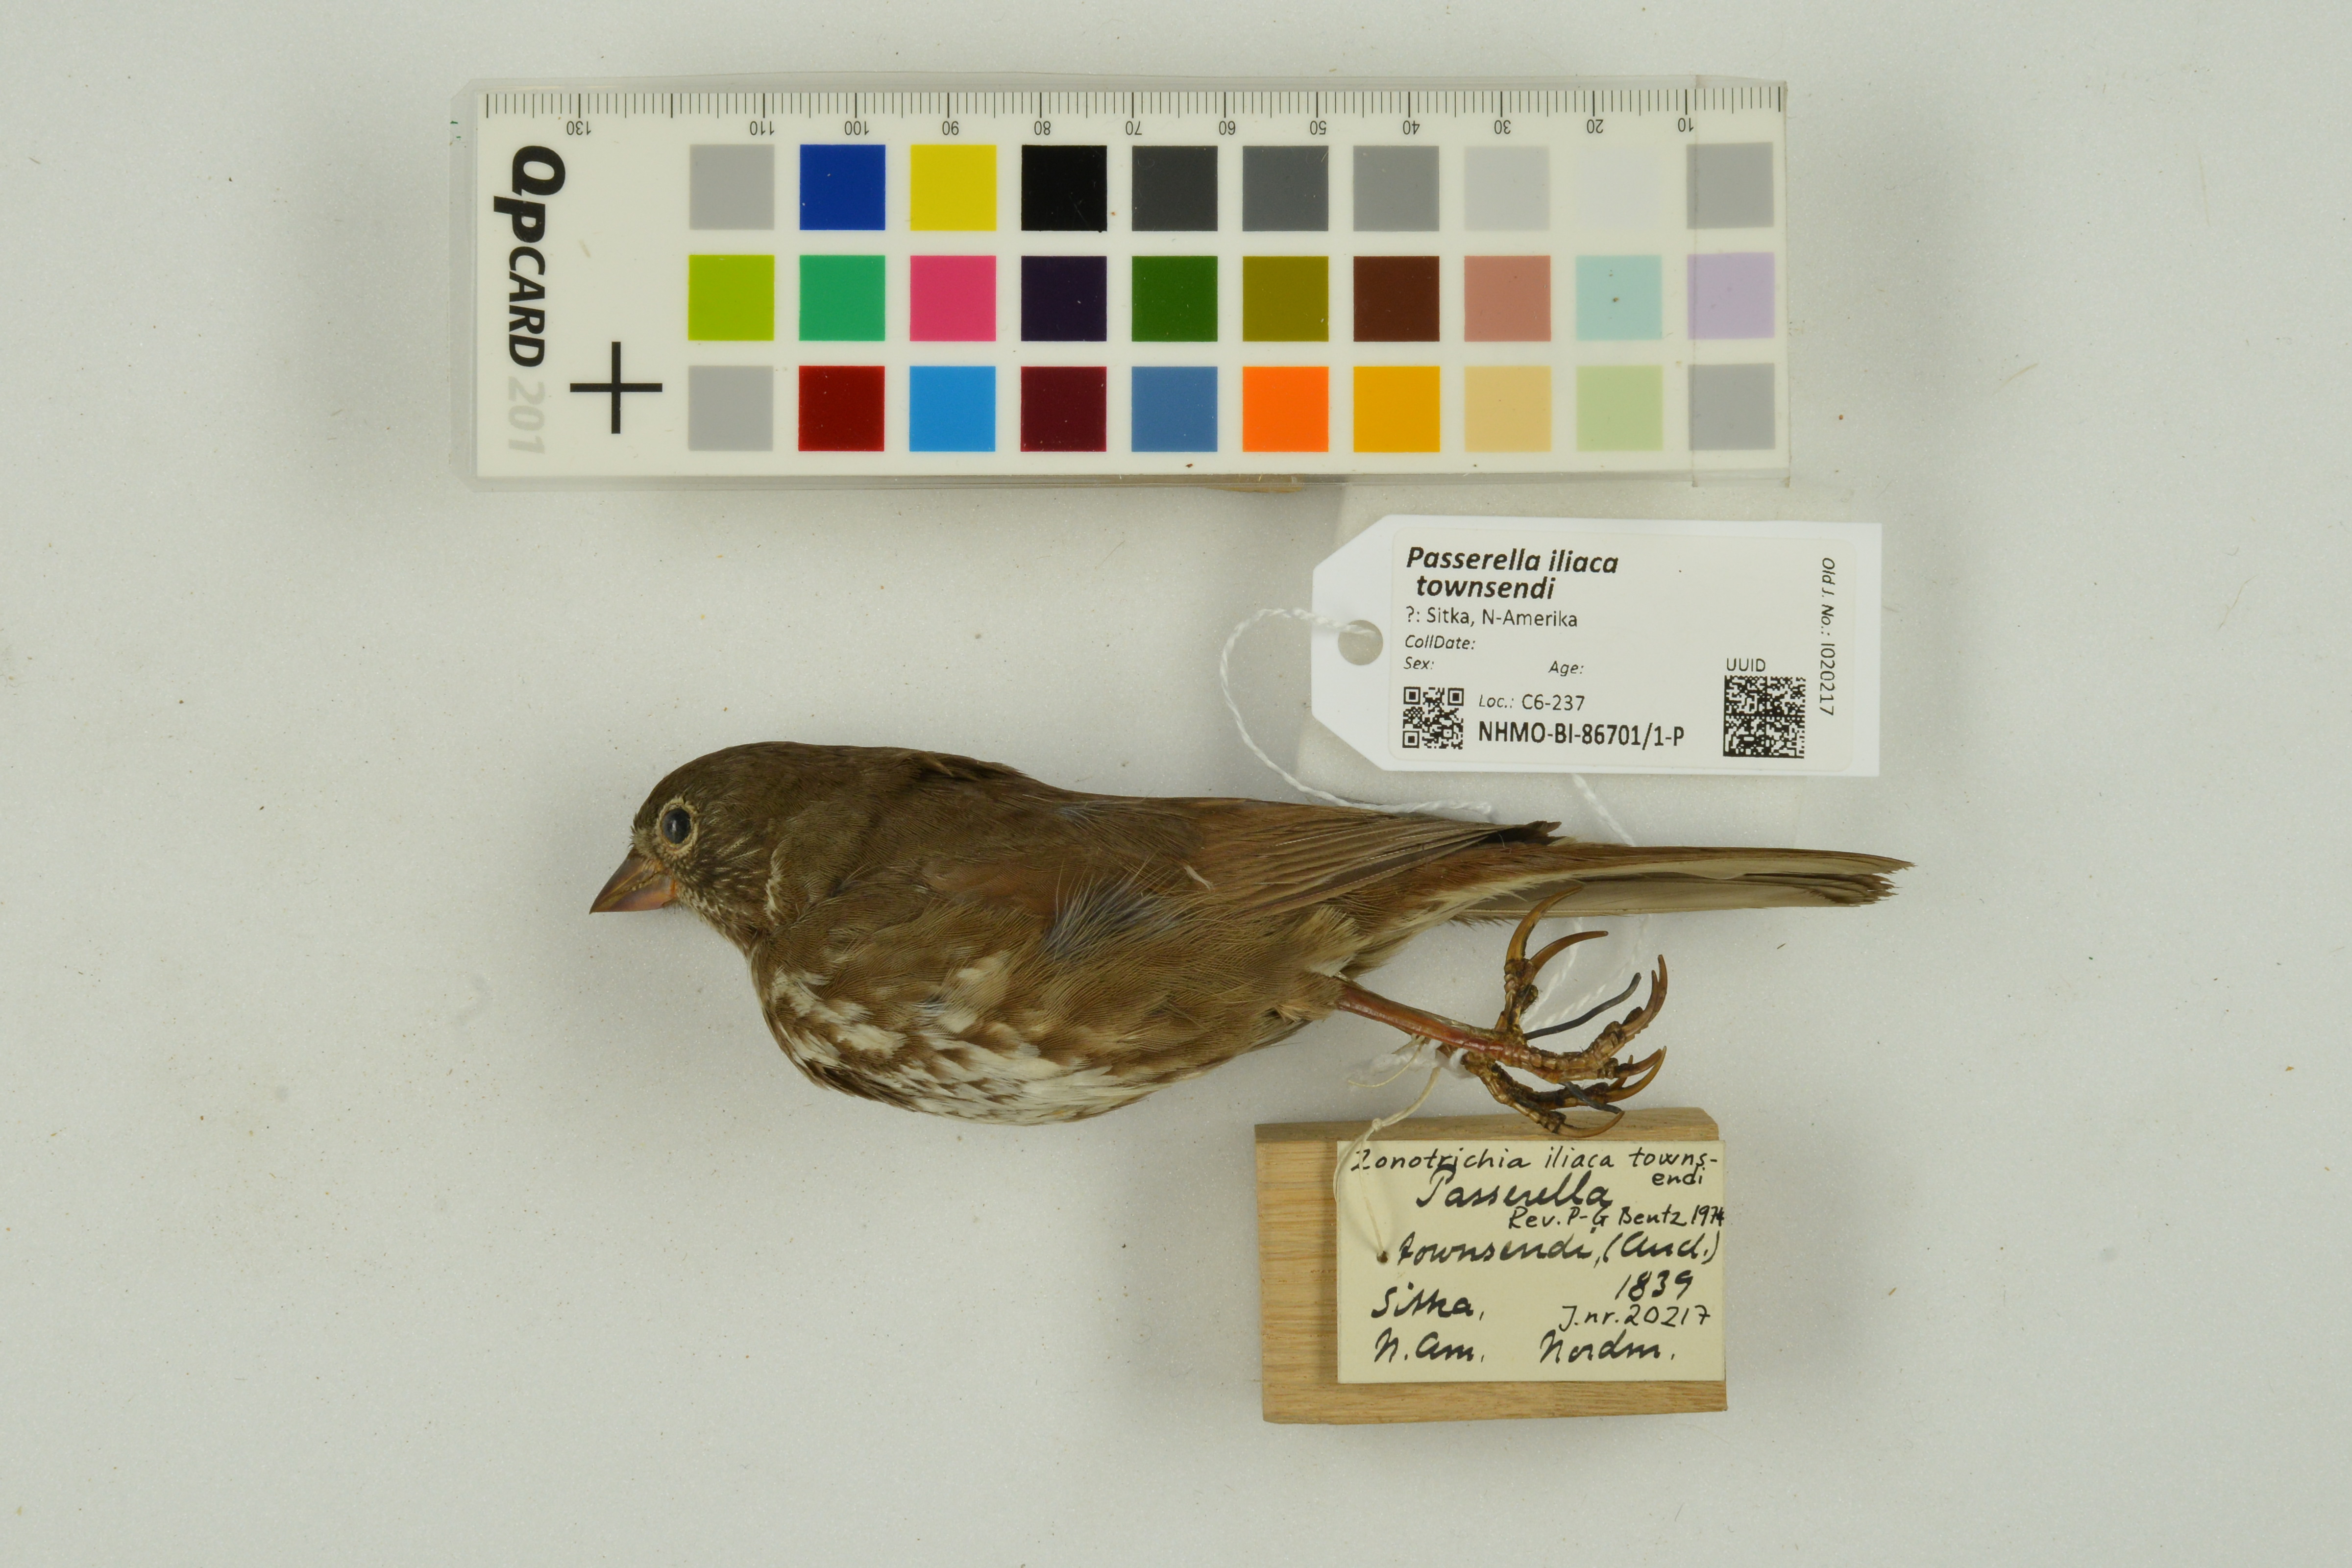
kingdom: Animalia
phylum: Chordata
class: Aves
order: Passeriformes
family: Passerellidae
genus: Passerella
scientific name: Passerella unalaschcensis
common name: Sooty fox sparrow
